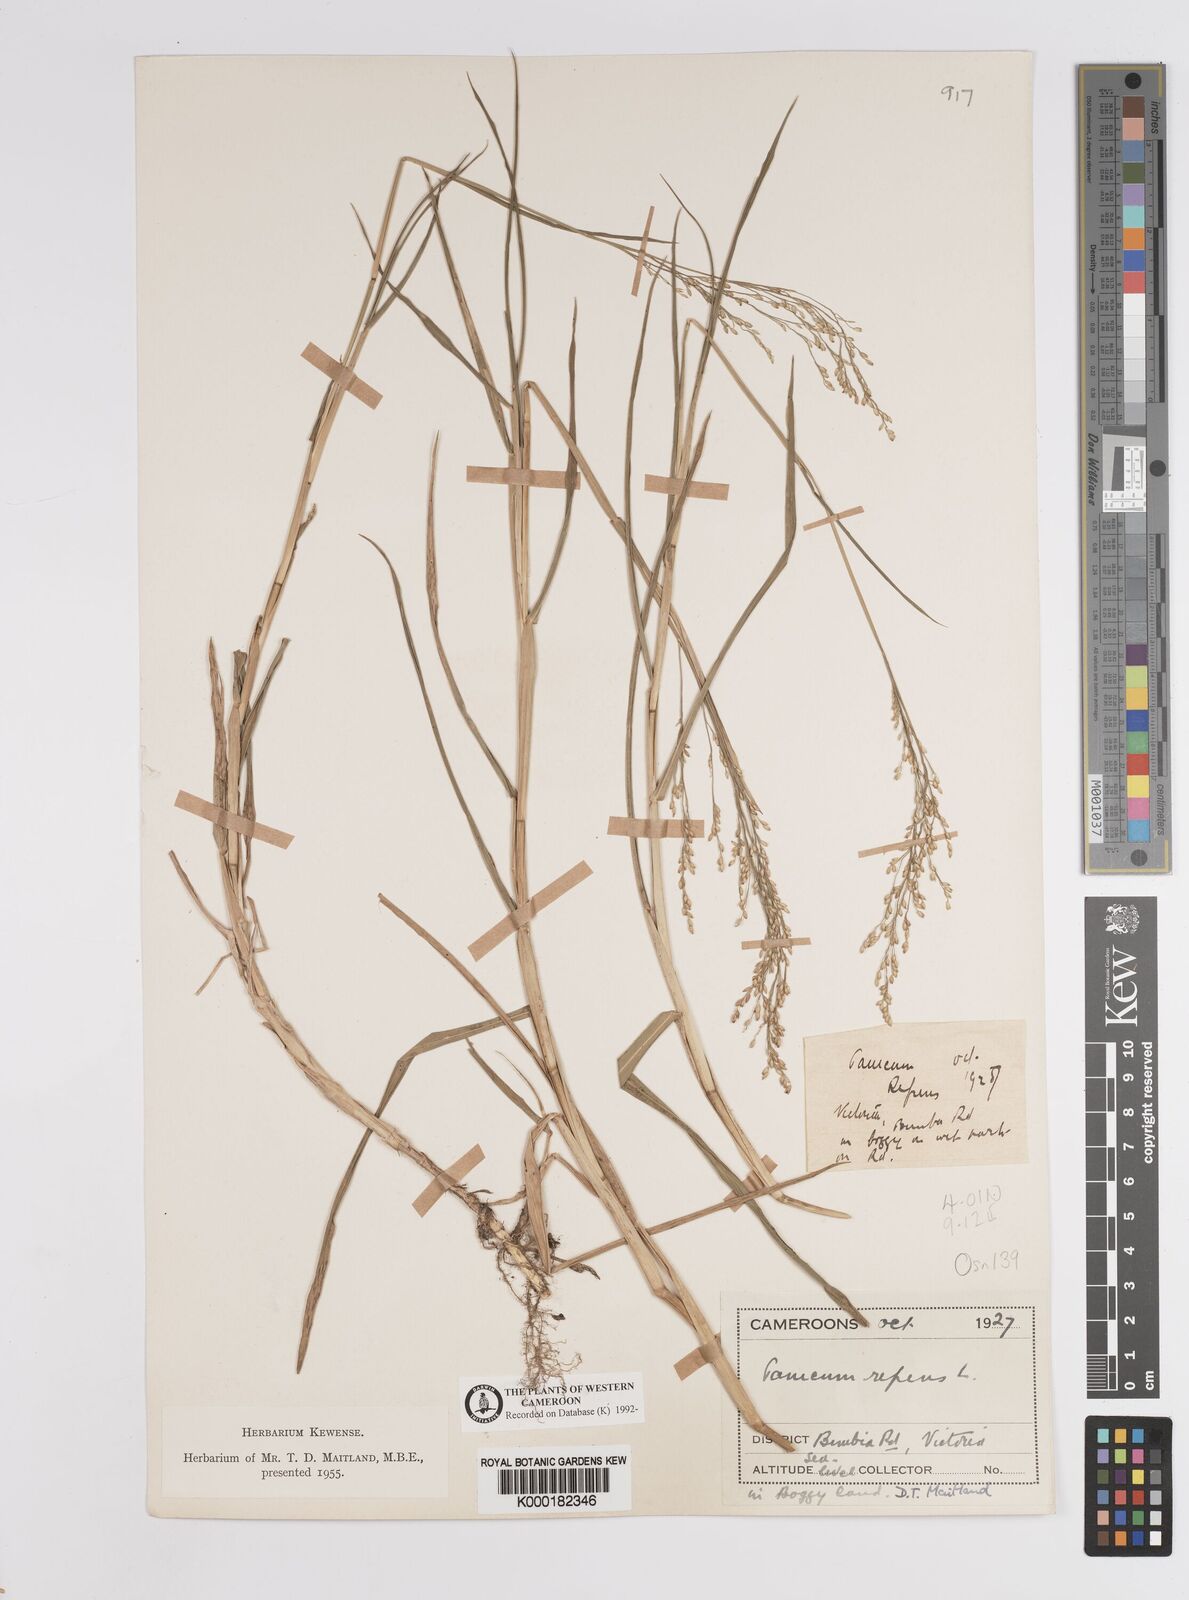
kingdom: Plantae
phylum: Tracheophyta
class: Liliopsida
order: Poales
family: Poaceae
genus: Panicum
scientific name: Panicum repens
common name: Torpedo grass
